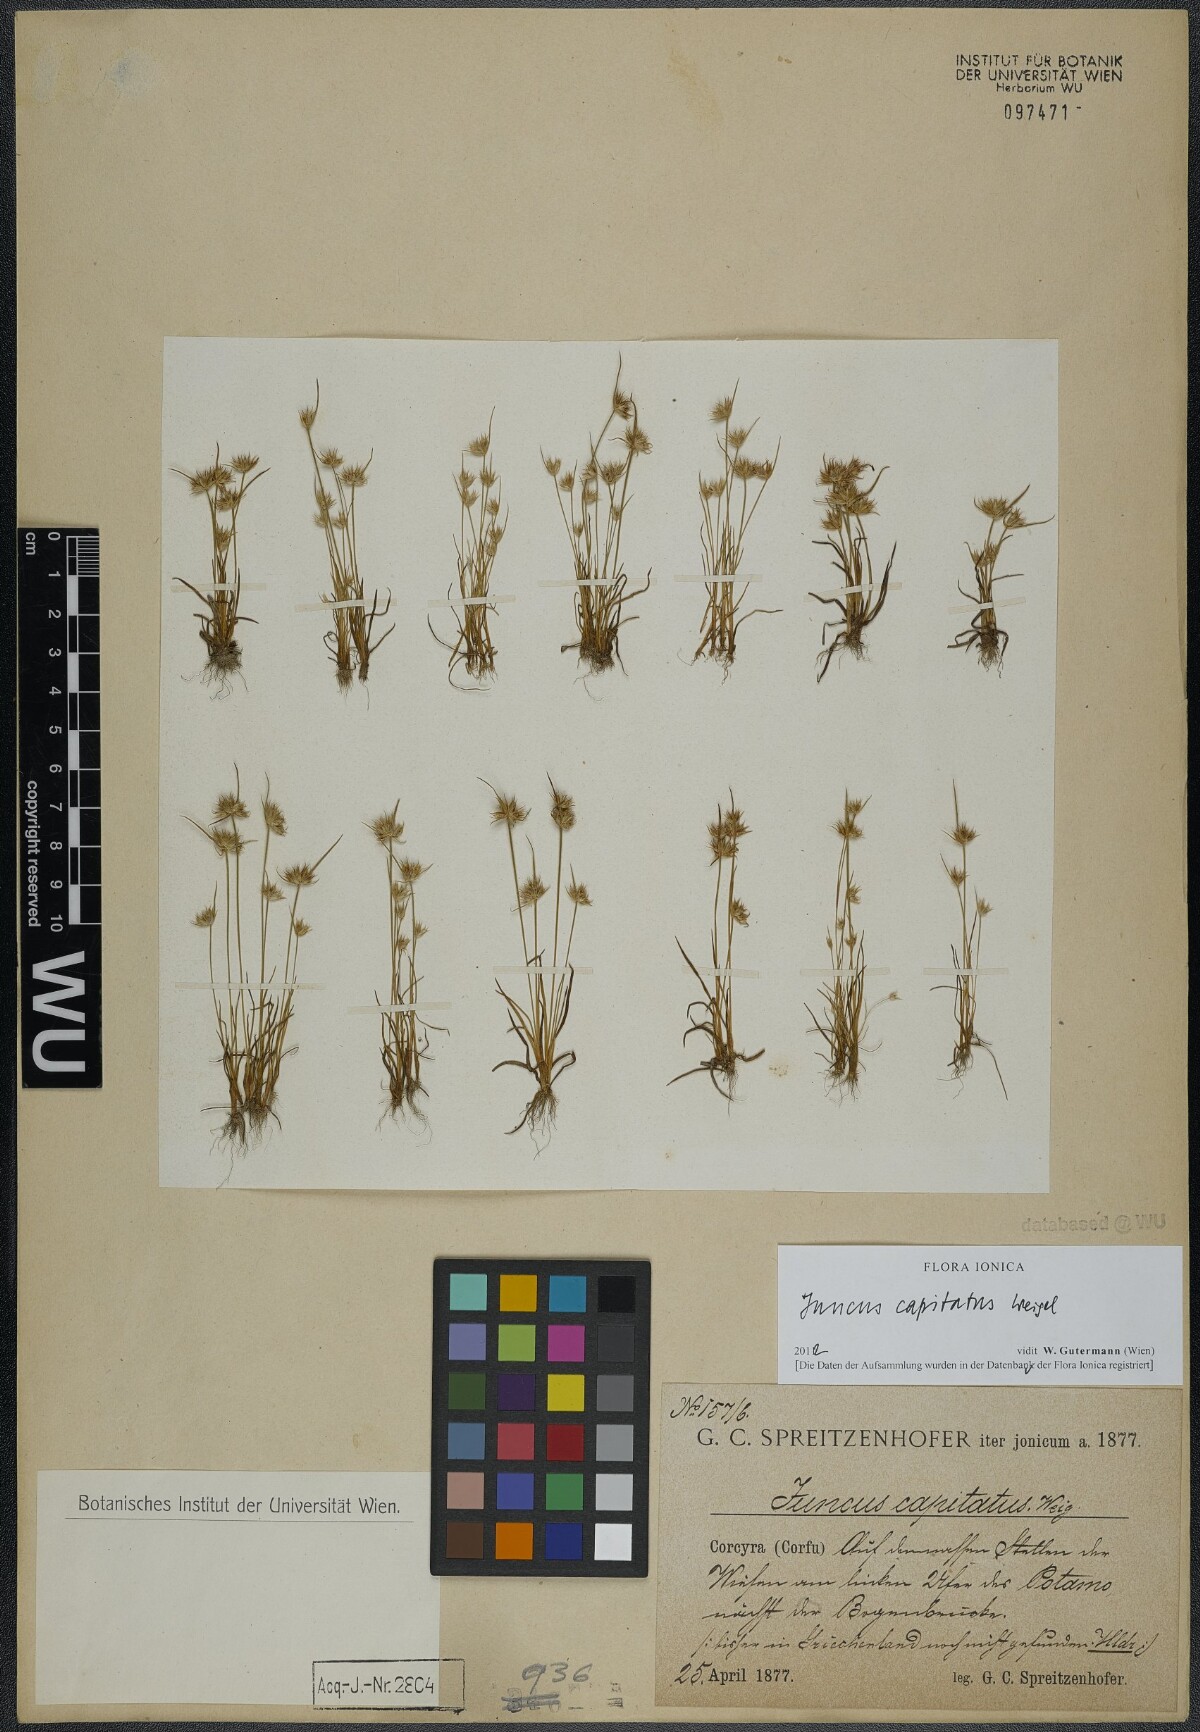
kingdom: Plantae
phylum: Tracheophyta
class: Liliopsida
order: Poales
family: Juncaceae
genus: Juncus
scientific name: Juncus capitatus
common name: Dwarf rush
